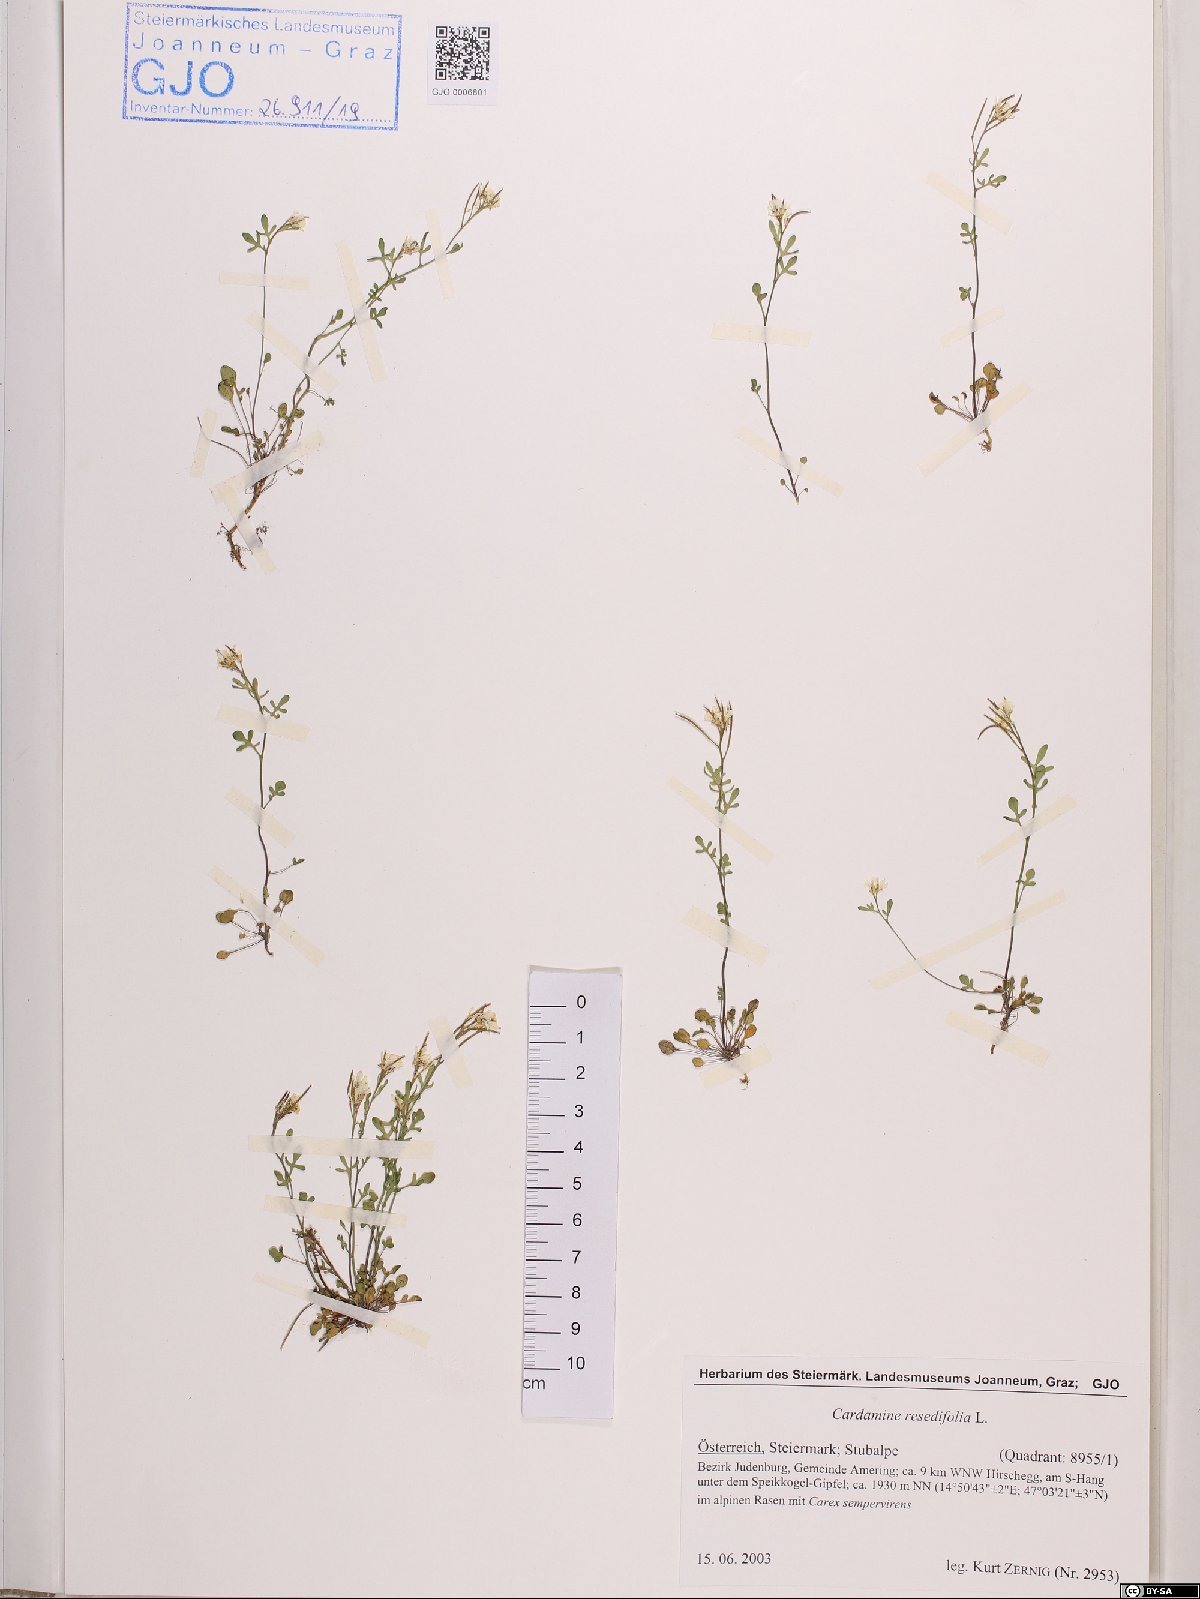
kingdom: Plantae
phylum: Tracheophyta
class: Magnoliopsida
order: Brassicales
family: Brassicaceae
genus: Cardamine
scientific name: Cardamine resedifolia
